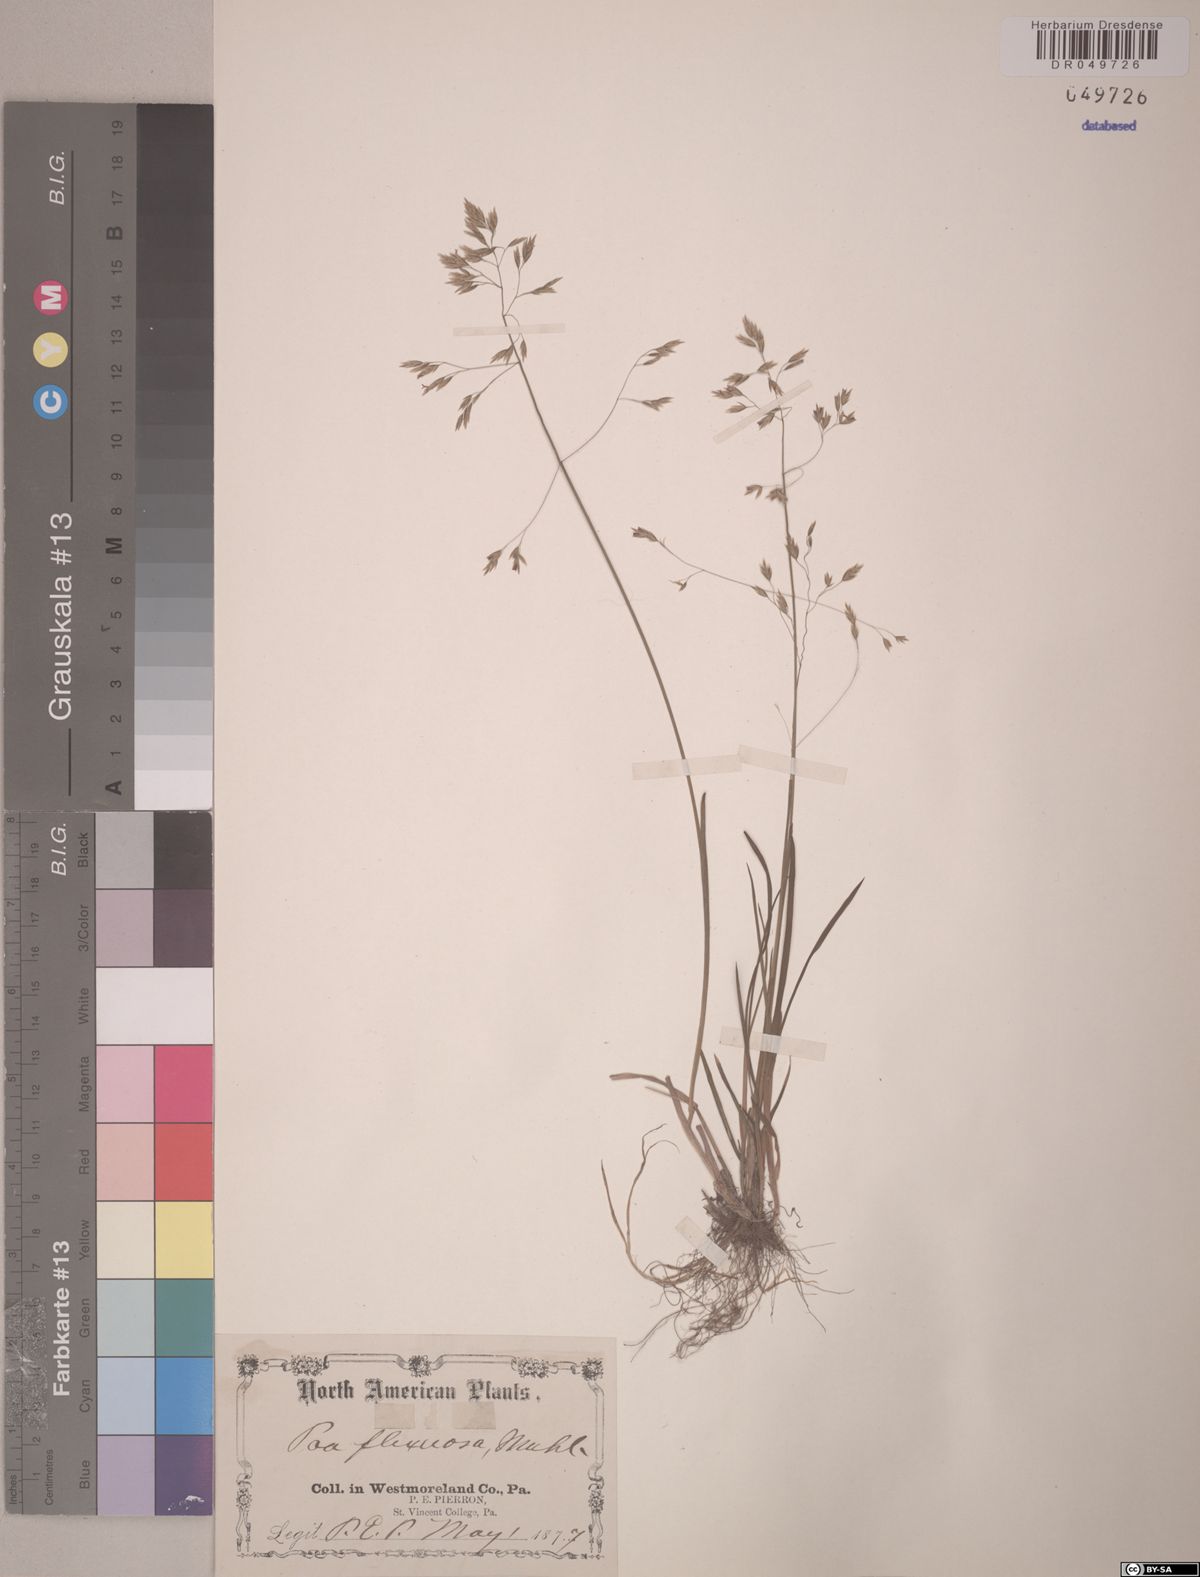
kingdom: Plantae
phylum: Tracheophyta
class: Liliopsida
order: Poales
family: Poaceae
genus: Poa
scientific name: Poa flexuosa
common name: Wavy meadow-grass
